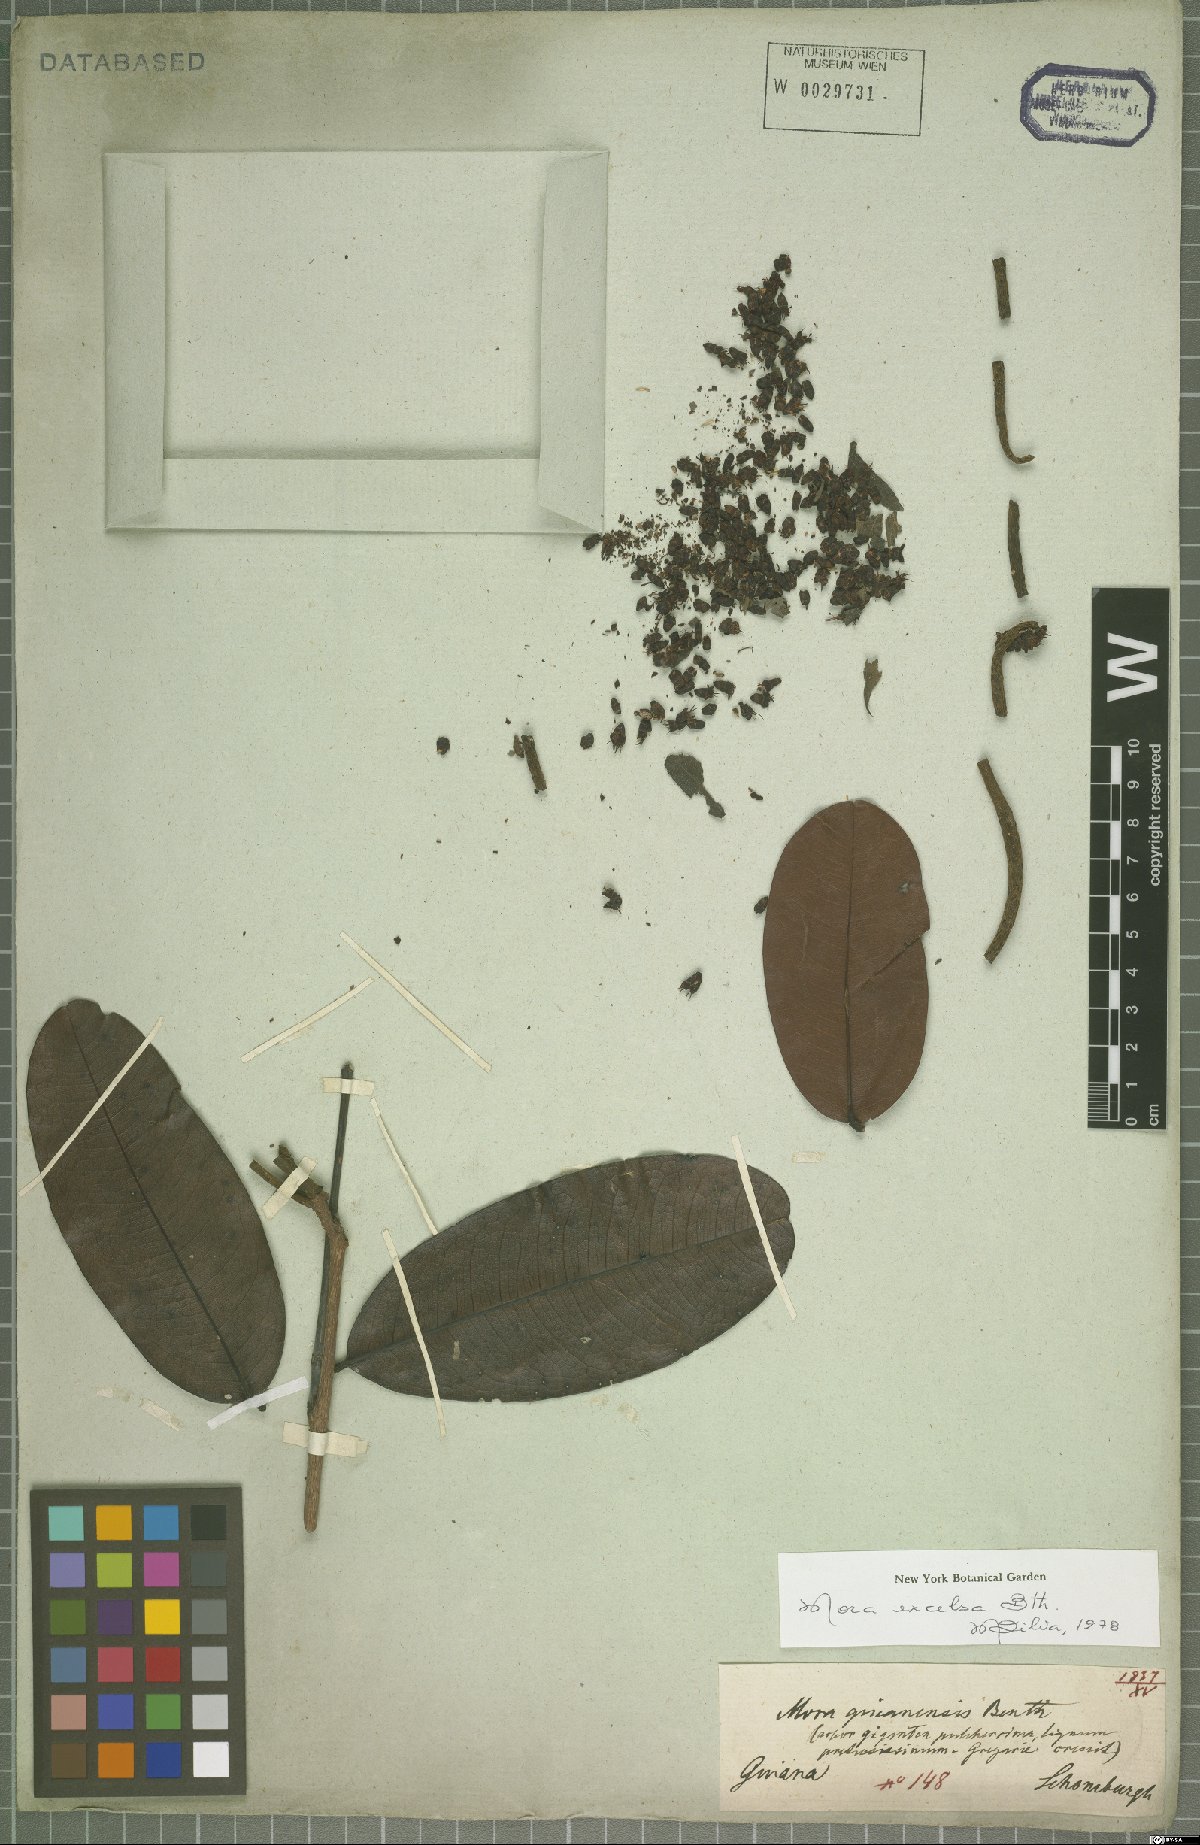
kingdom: Plantae
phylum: Tracheophyta
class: Magnoliopsida
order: Fabales
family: Fabaceae
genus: Mora
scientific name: Mora excelsa
